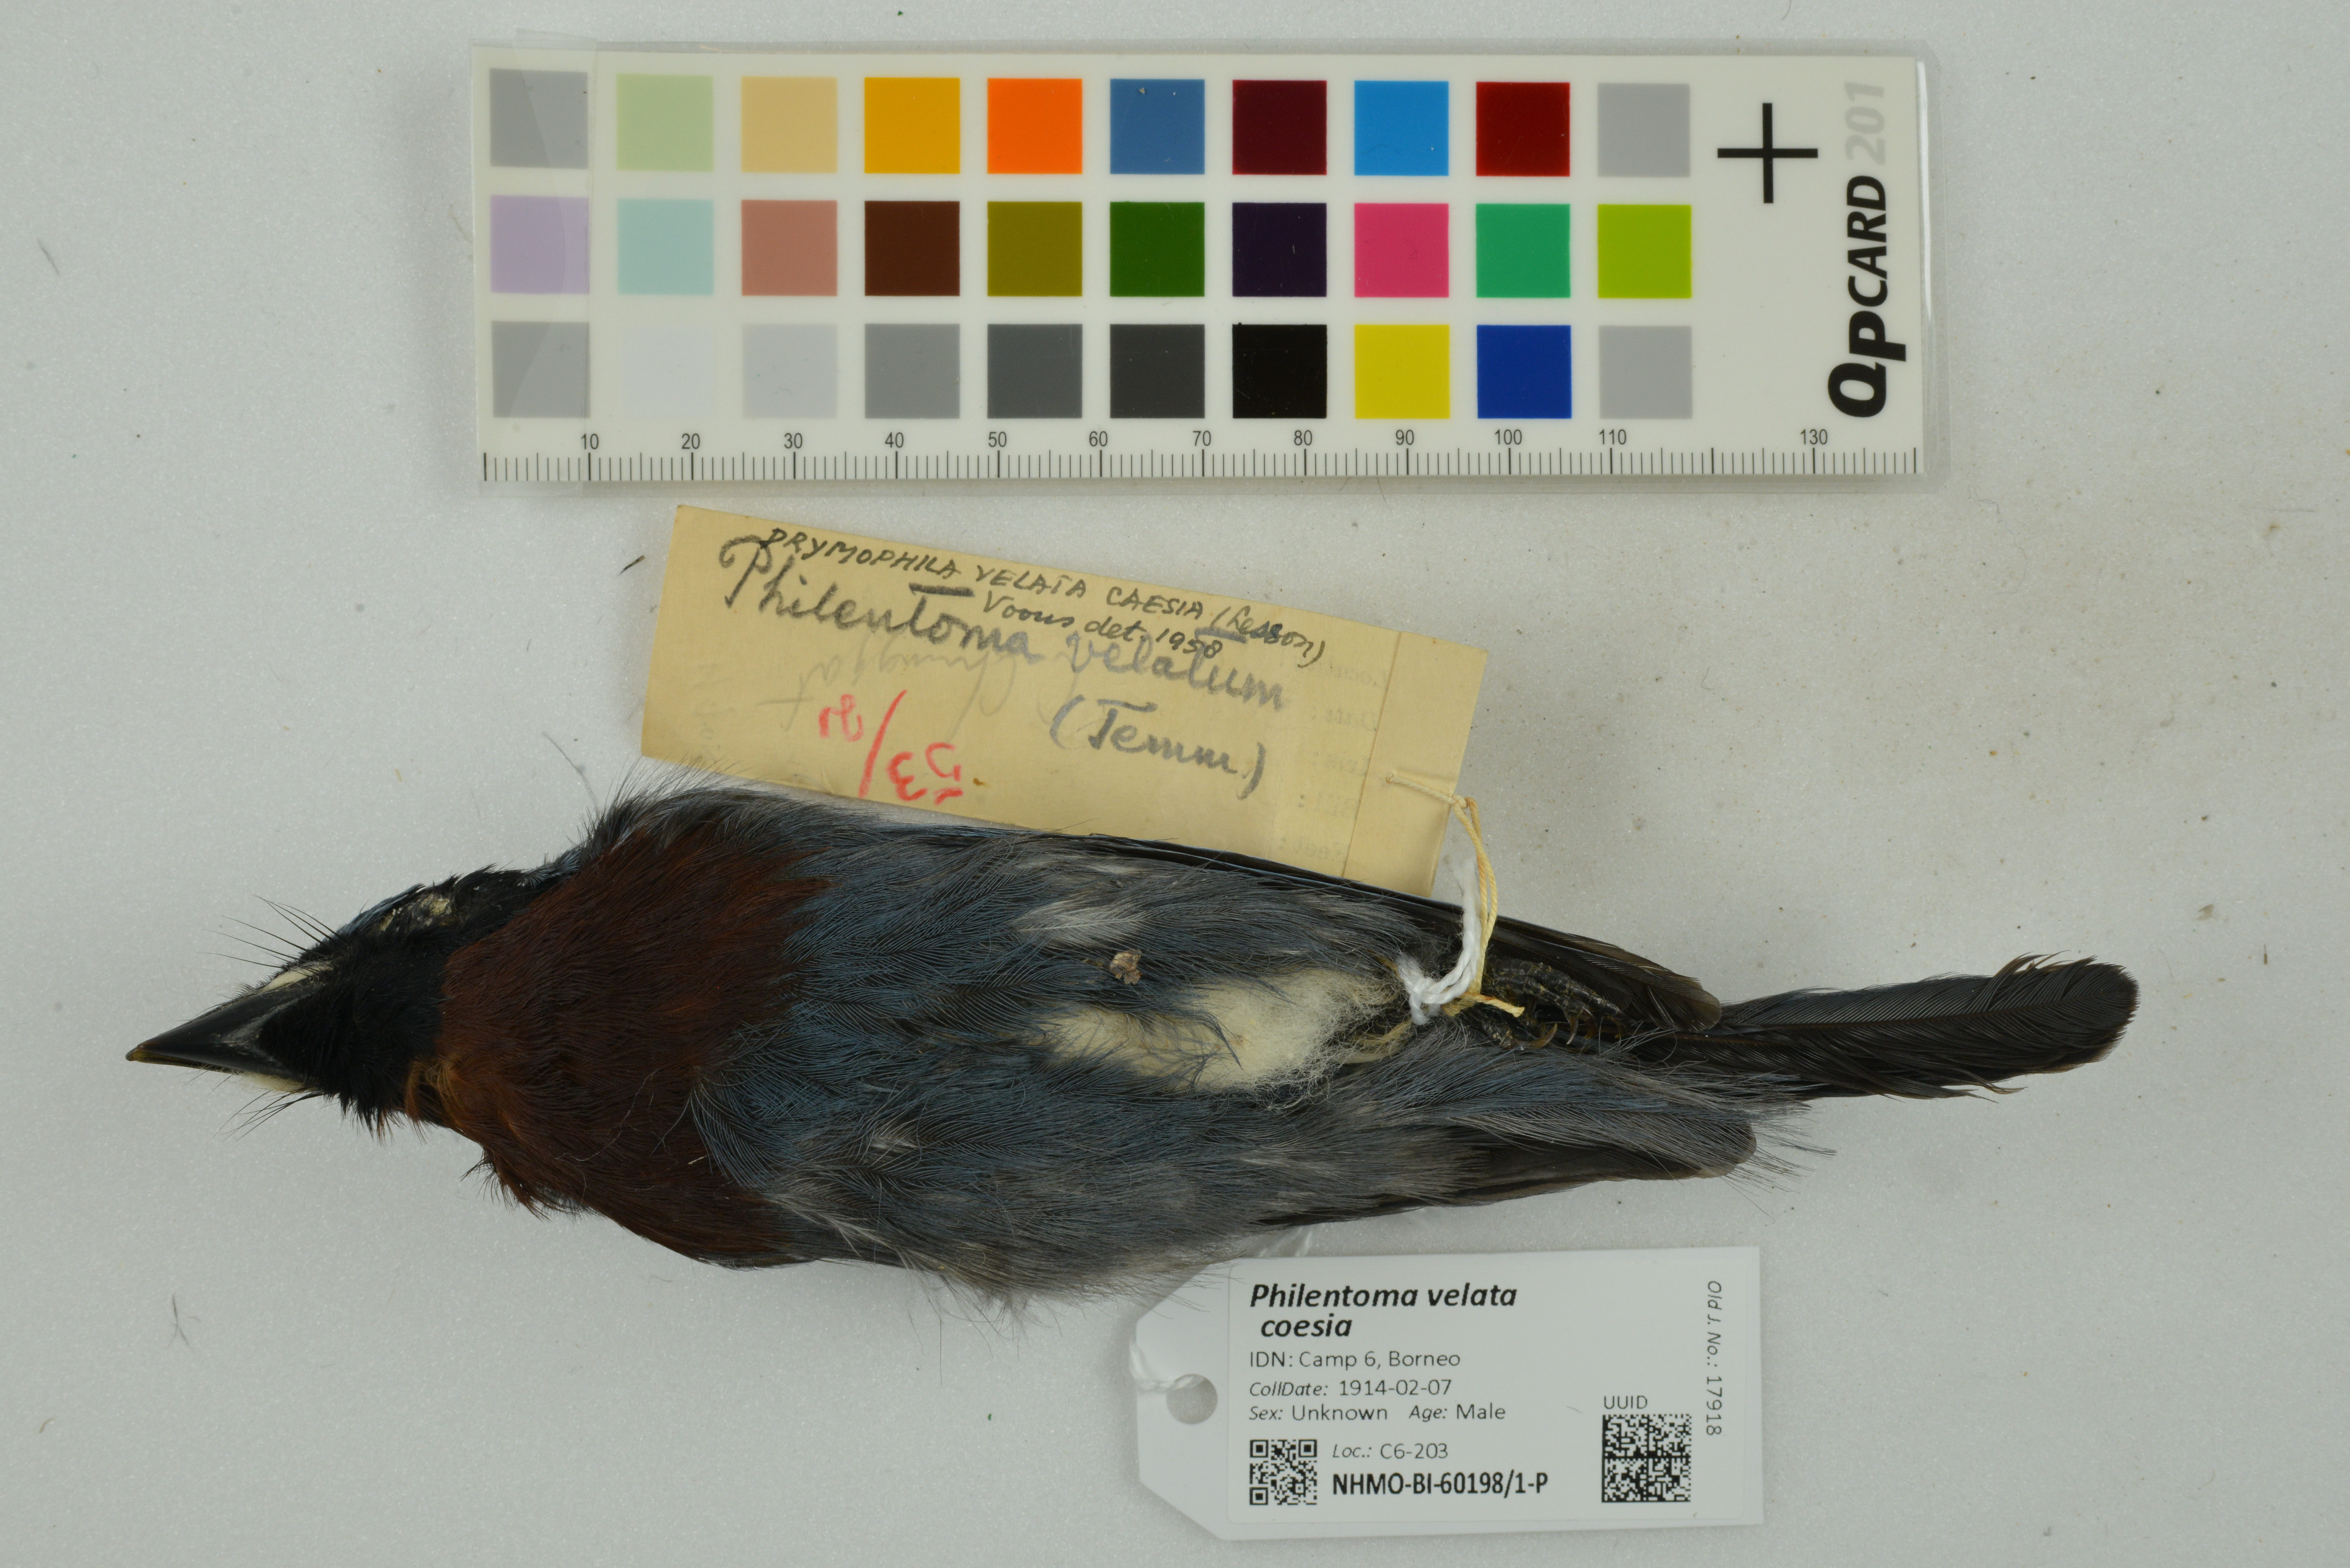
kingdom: Animalia
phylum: Chordata
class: Aves
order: Passeriformes
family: Tephrodornithidae
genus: Philentoma
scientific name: Philentoma velata
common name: Maroon-breasted philentoma
